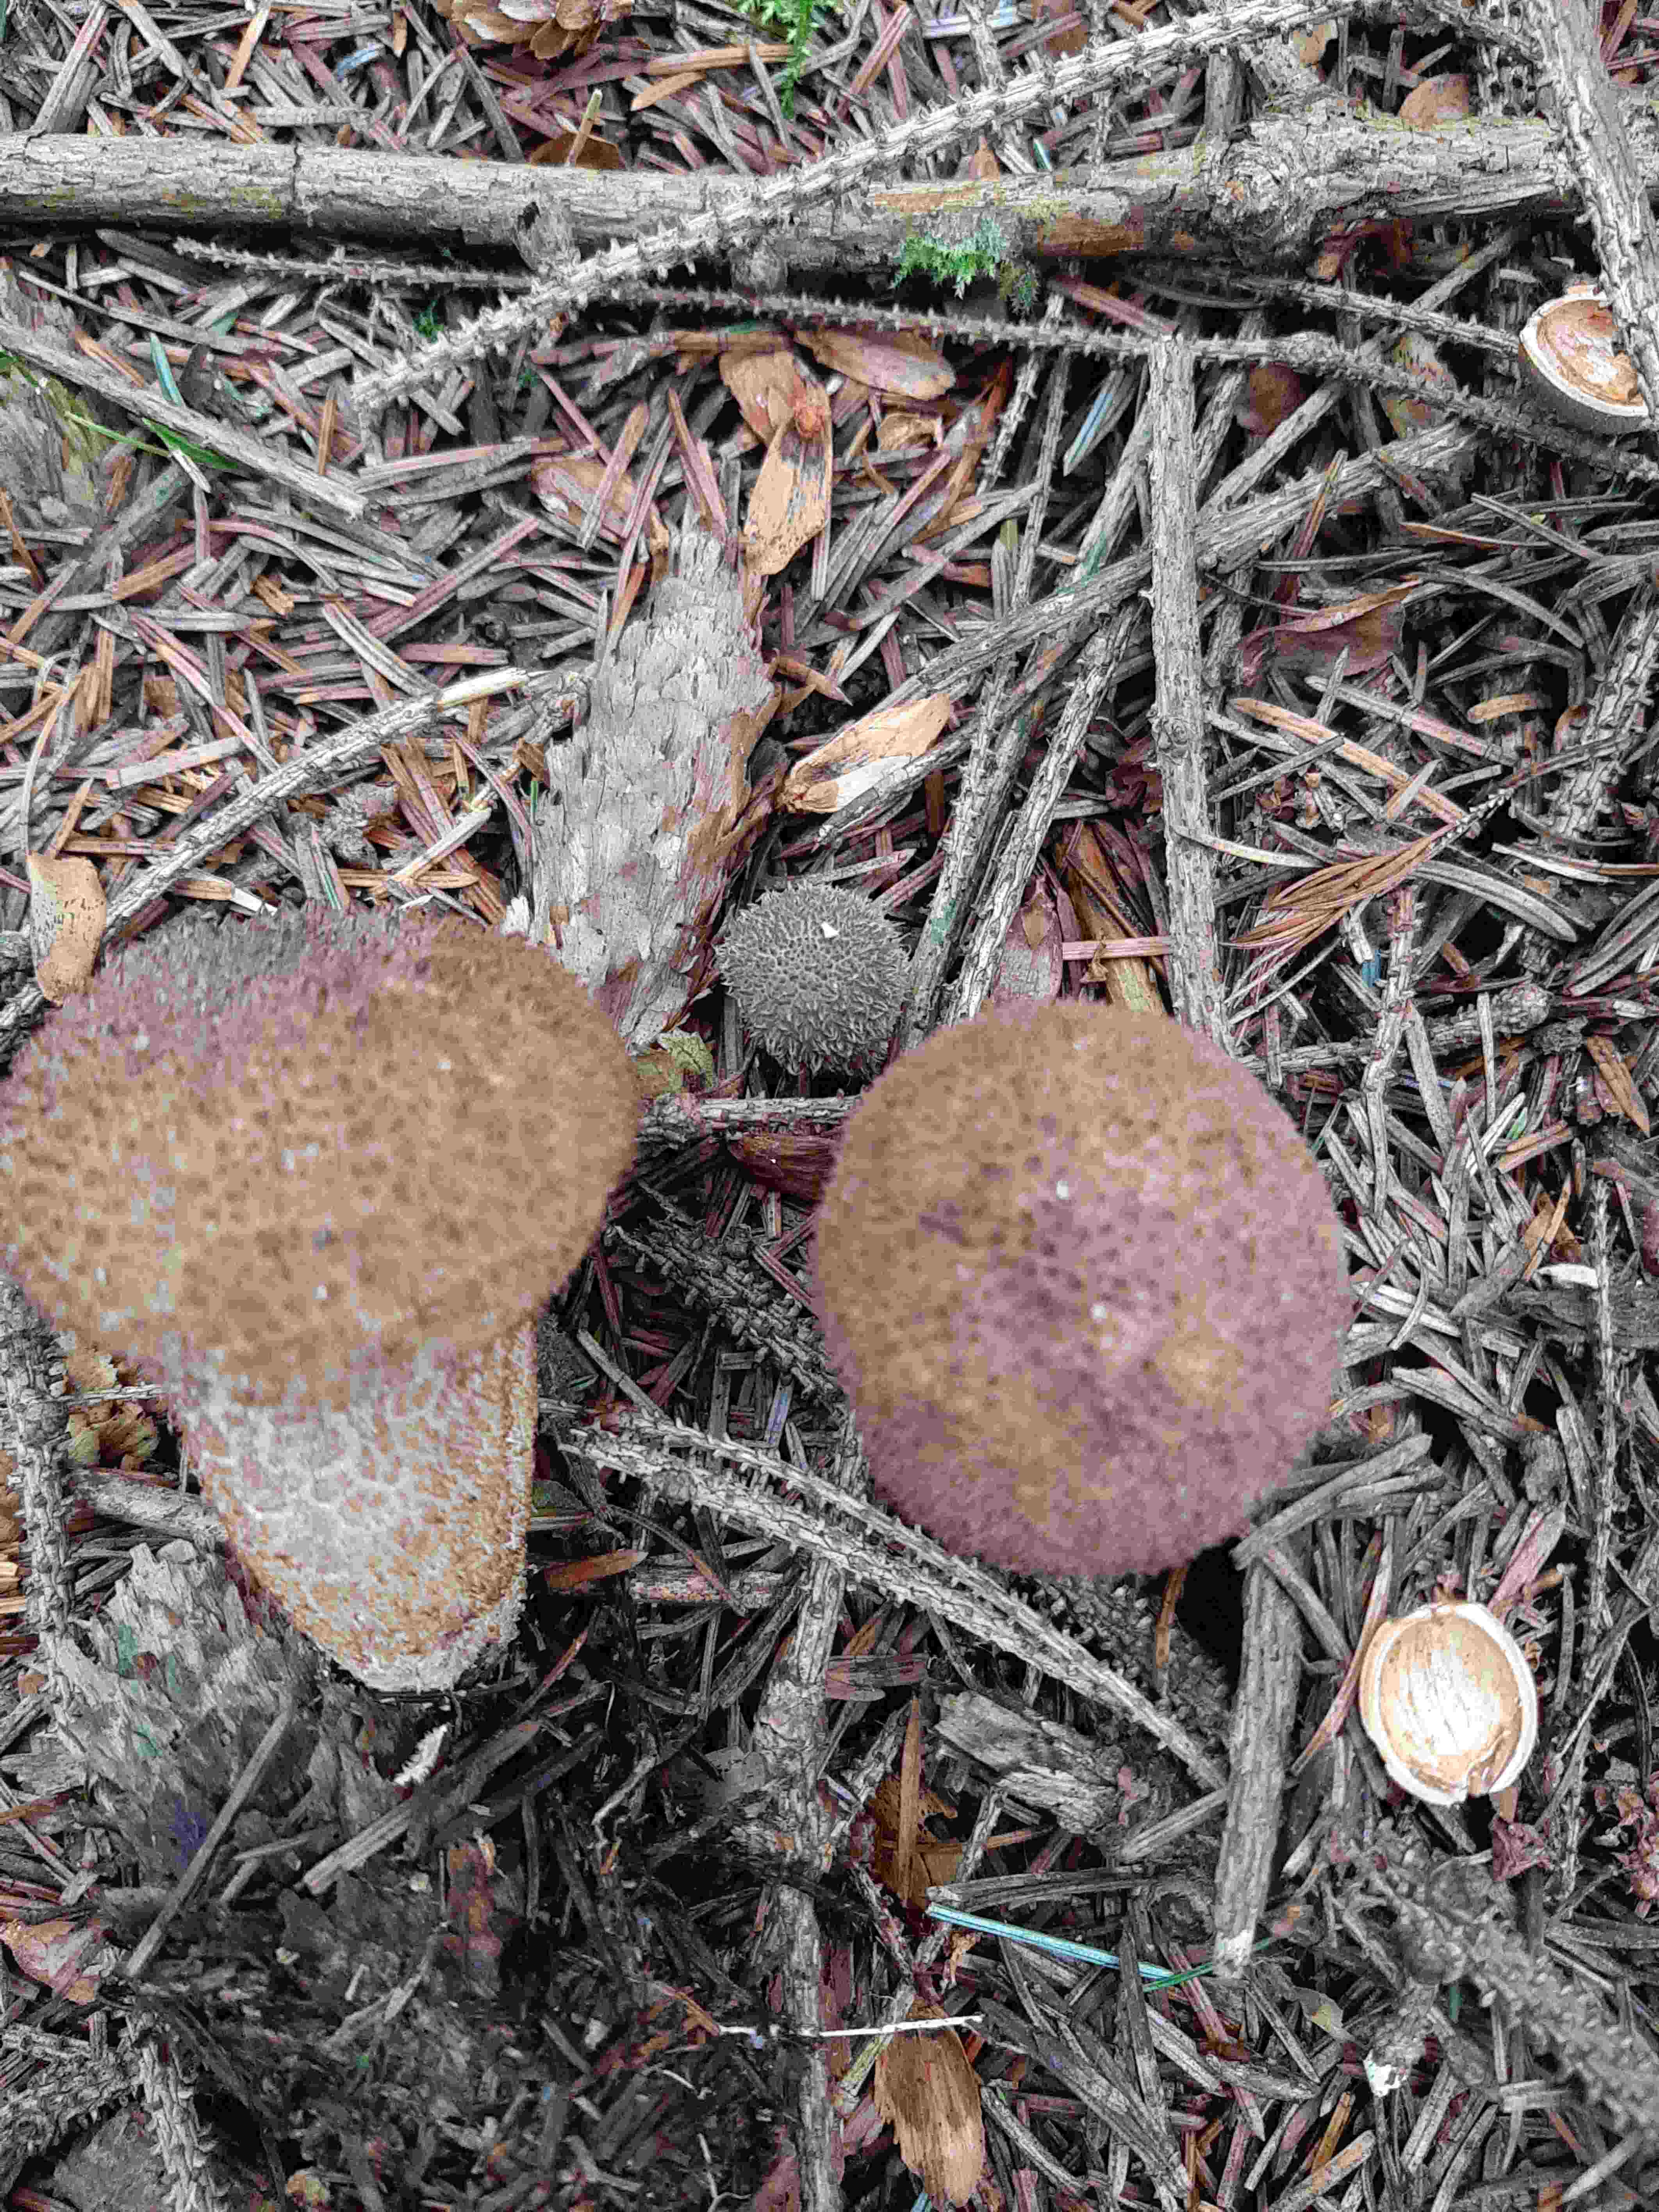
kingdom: Fungi
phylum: Basidiomycota
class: Agaricomycetes
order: Agaricales
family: Lycoperdaceae
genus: Lycoperdon
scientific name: Lycoperdon nigrescens
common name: sortagtig støvbold
